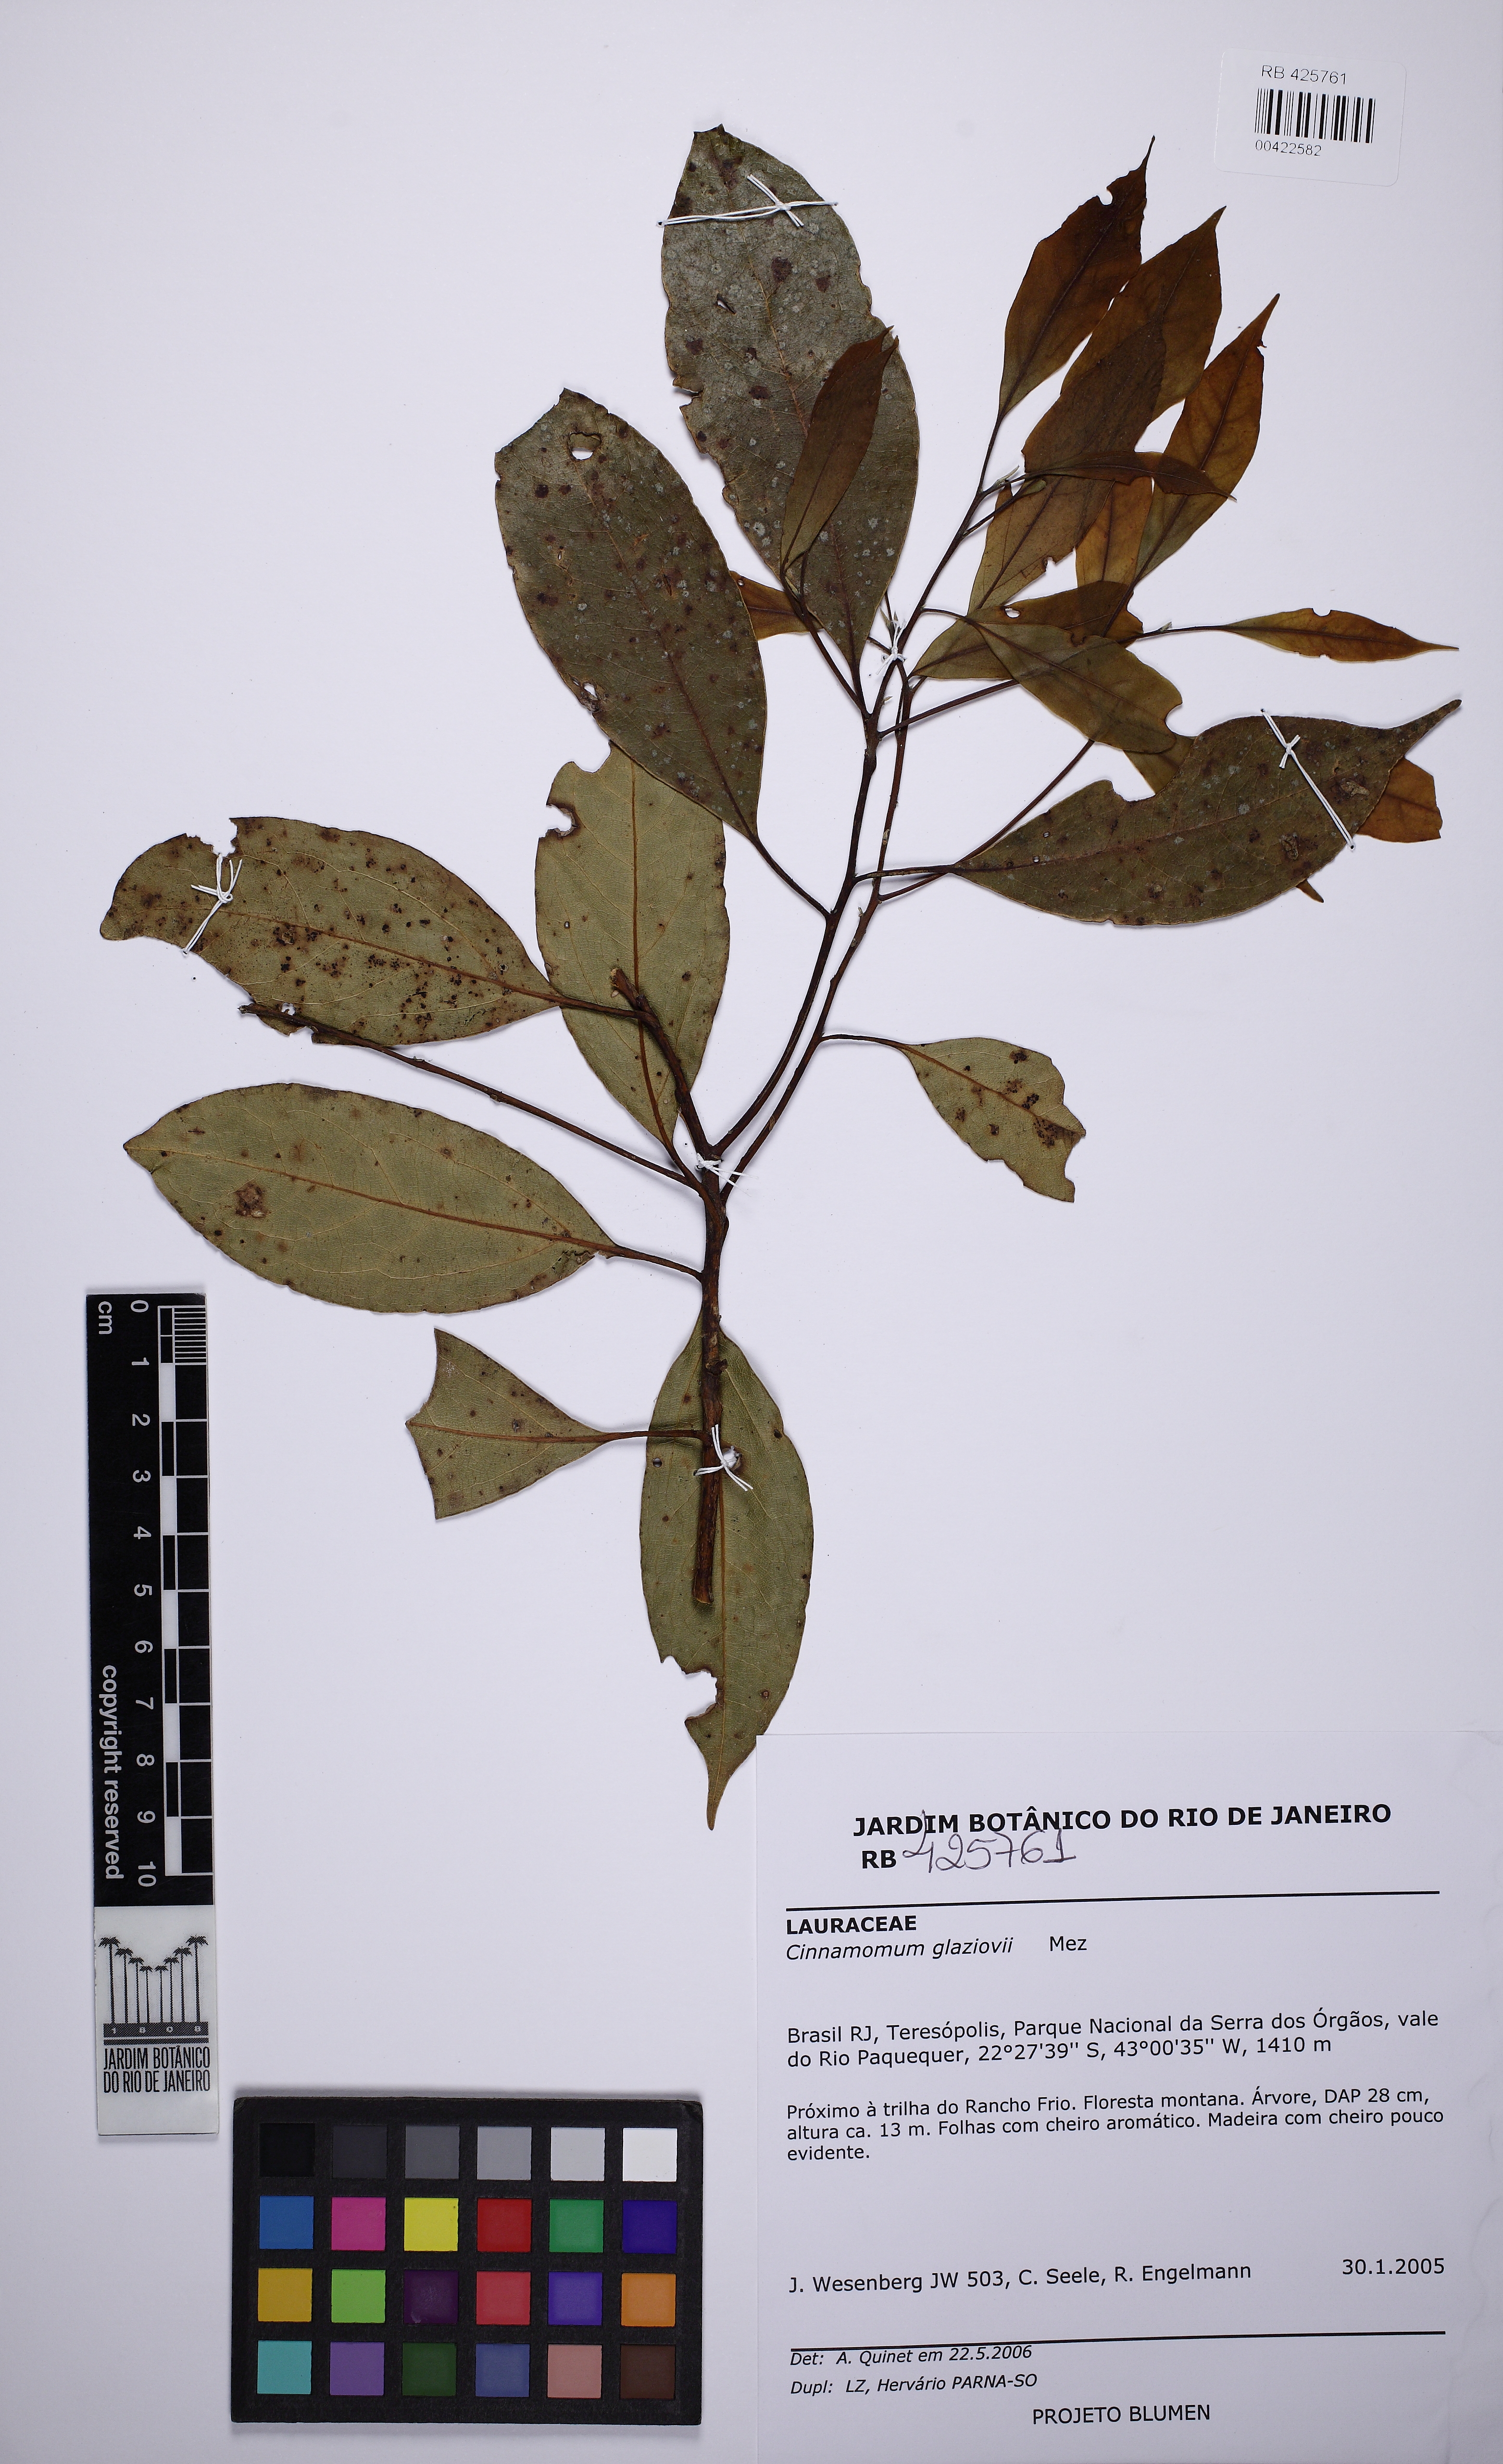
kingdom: Plantae
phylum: Tracheophyta
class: Magnoliopsida
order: Laurales
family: Lauraceae
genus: Aiouea
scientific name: Aiouea glaziovii
